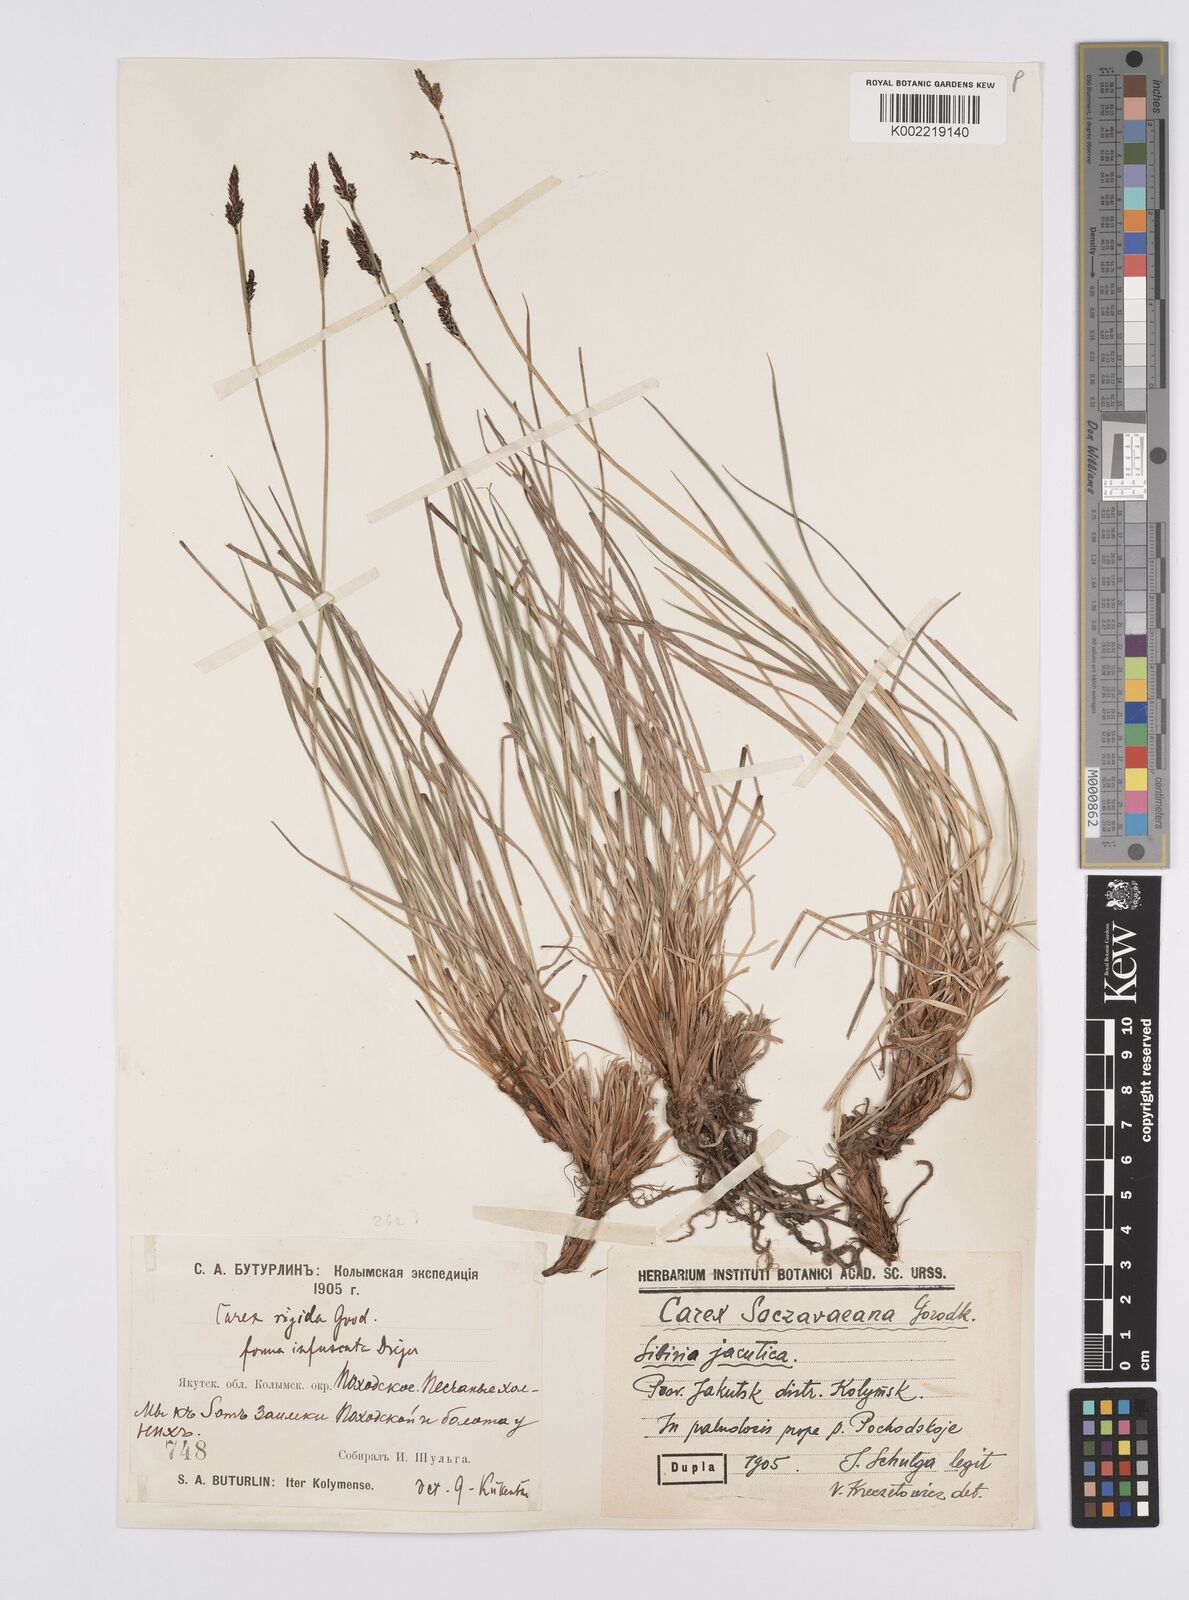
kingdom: Plantae
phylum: Tracheophyta
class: Liliopsida
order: Poales
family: Cyperaceae
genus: Carex
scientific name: Carex soczavaeana
